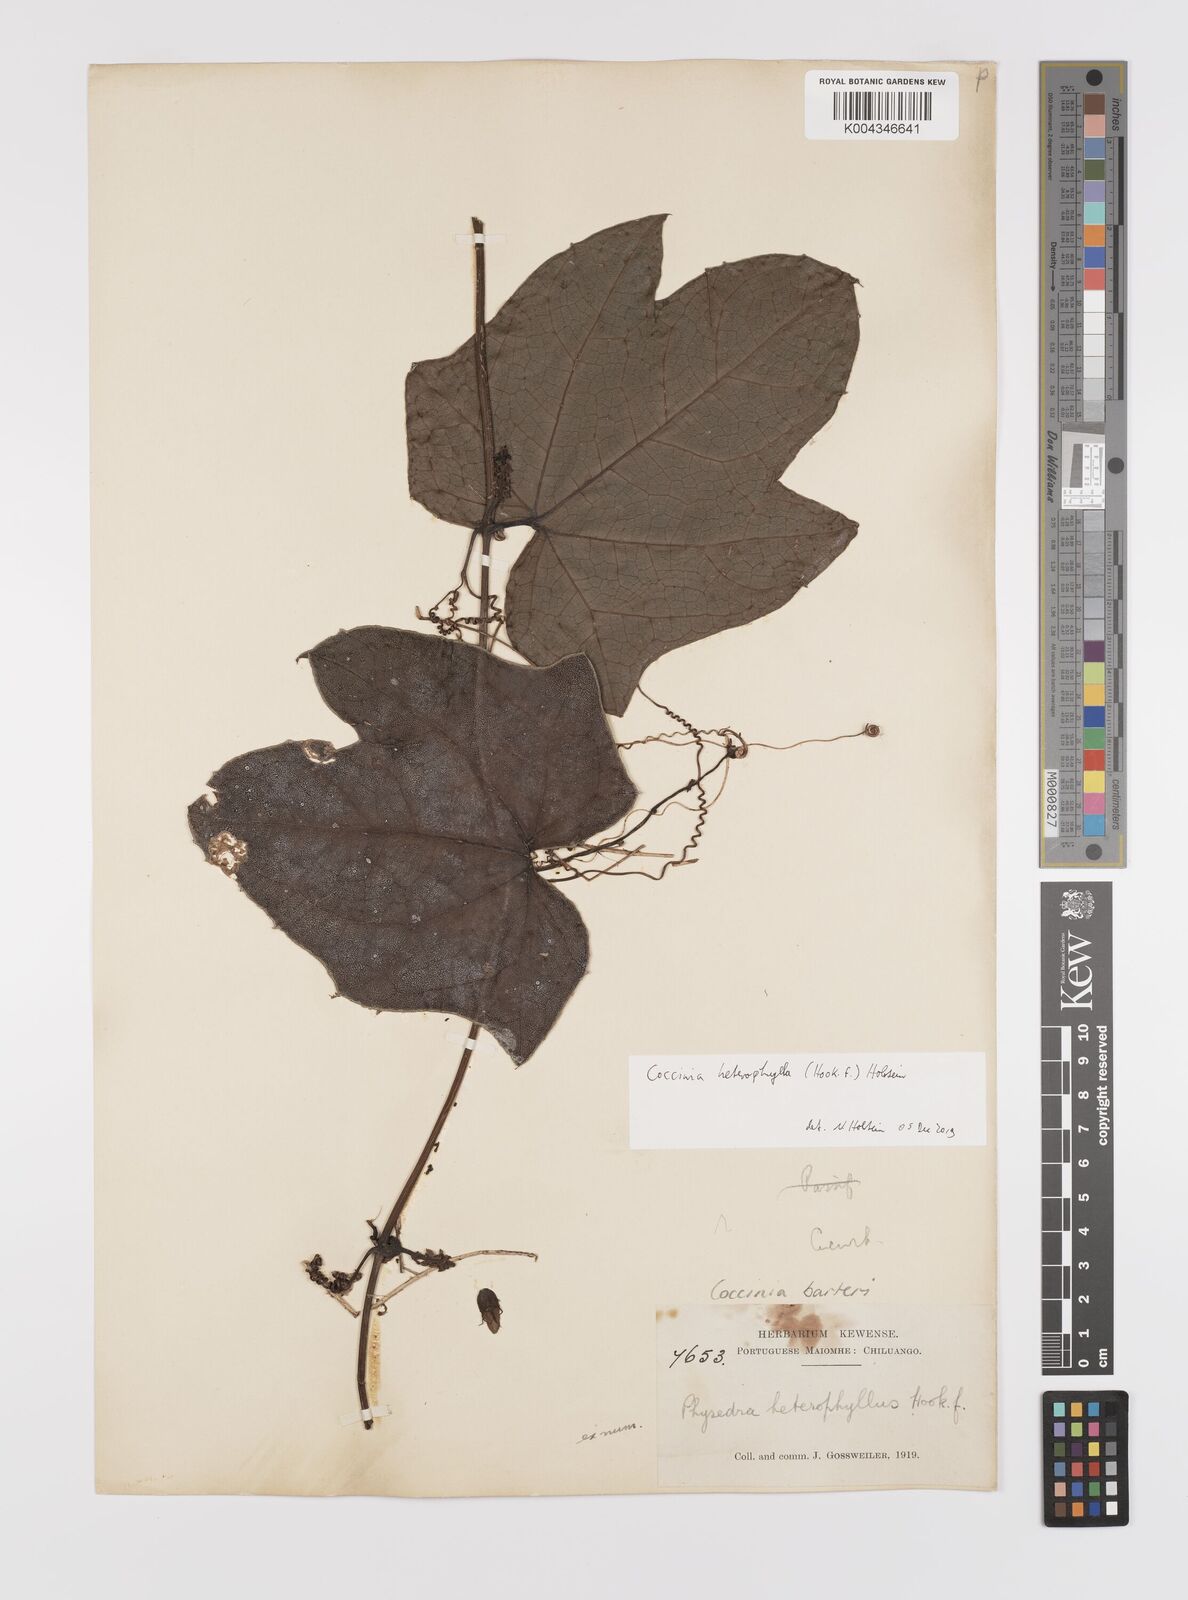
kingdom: Plantae
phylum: Tracheophyta
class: Magnoliopsida
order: Cucurbitales
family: Cucurbitaceae
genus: Coccinia
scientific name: Coccinia heterophylla
